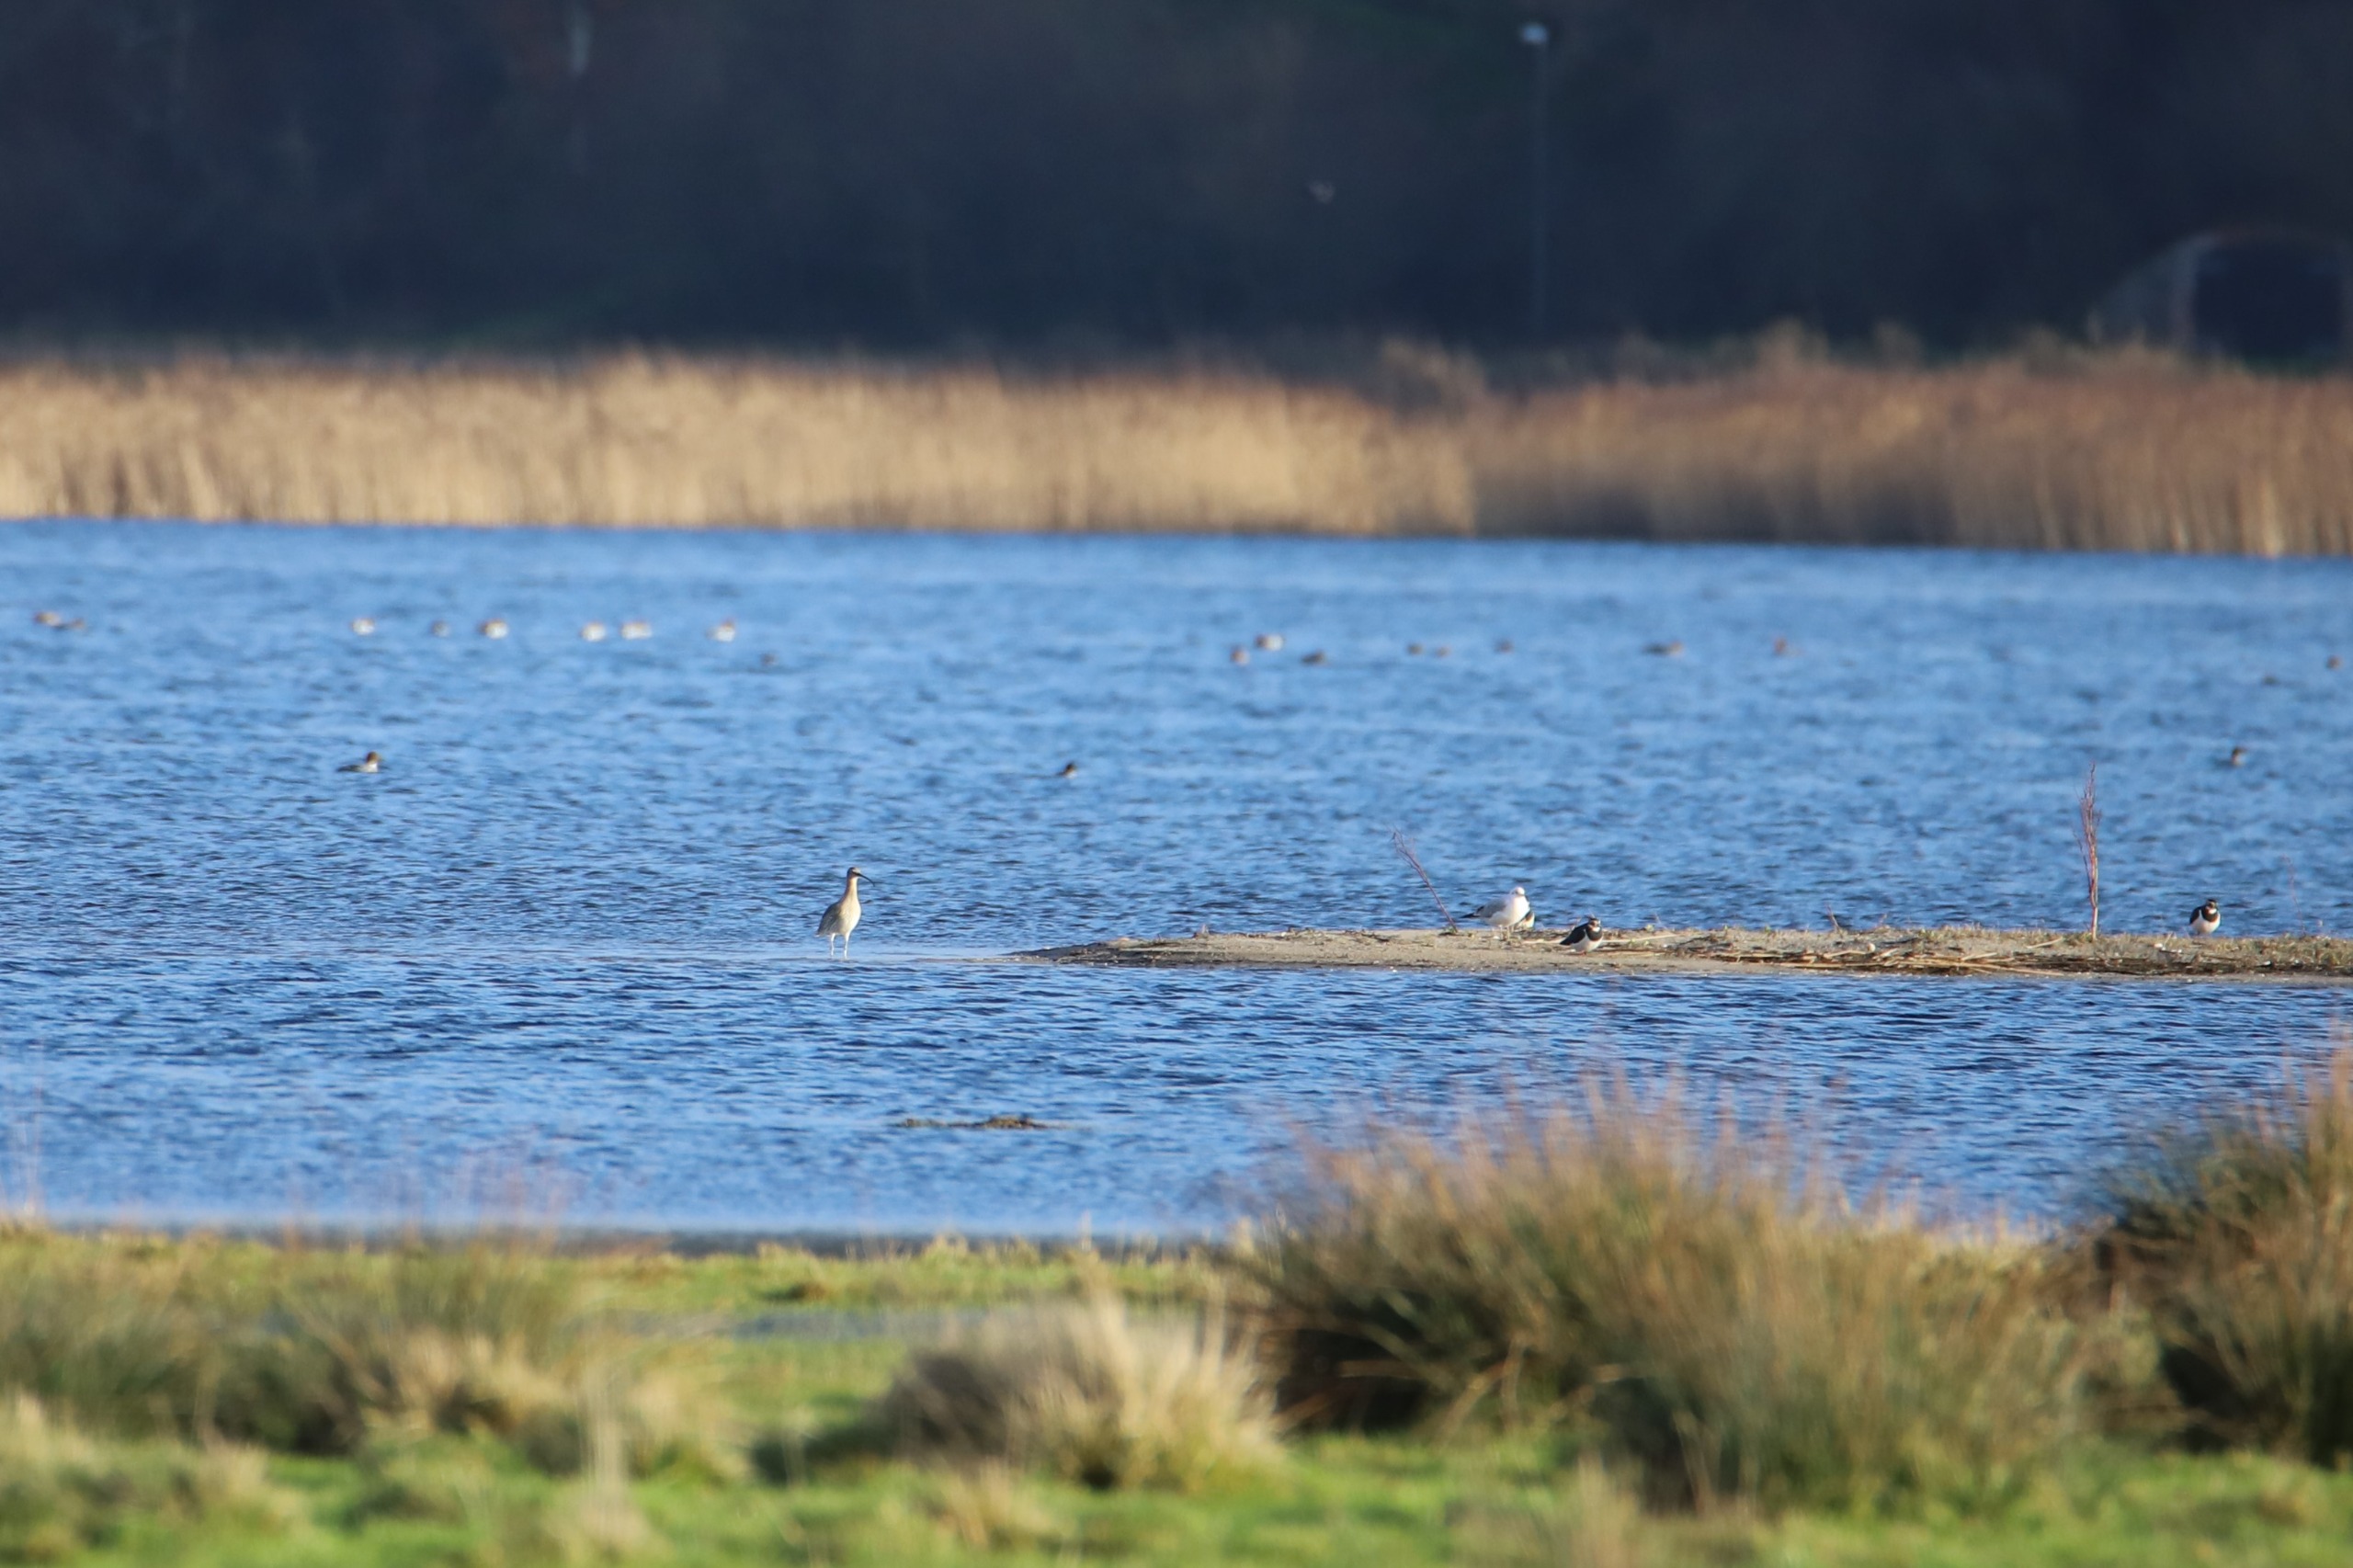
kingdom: Animalia
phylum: Chordata
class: Aves
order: Charadriiformes
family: Scolopacidae
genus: Numenius
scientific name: Numenius arquata
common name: Storspove
